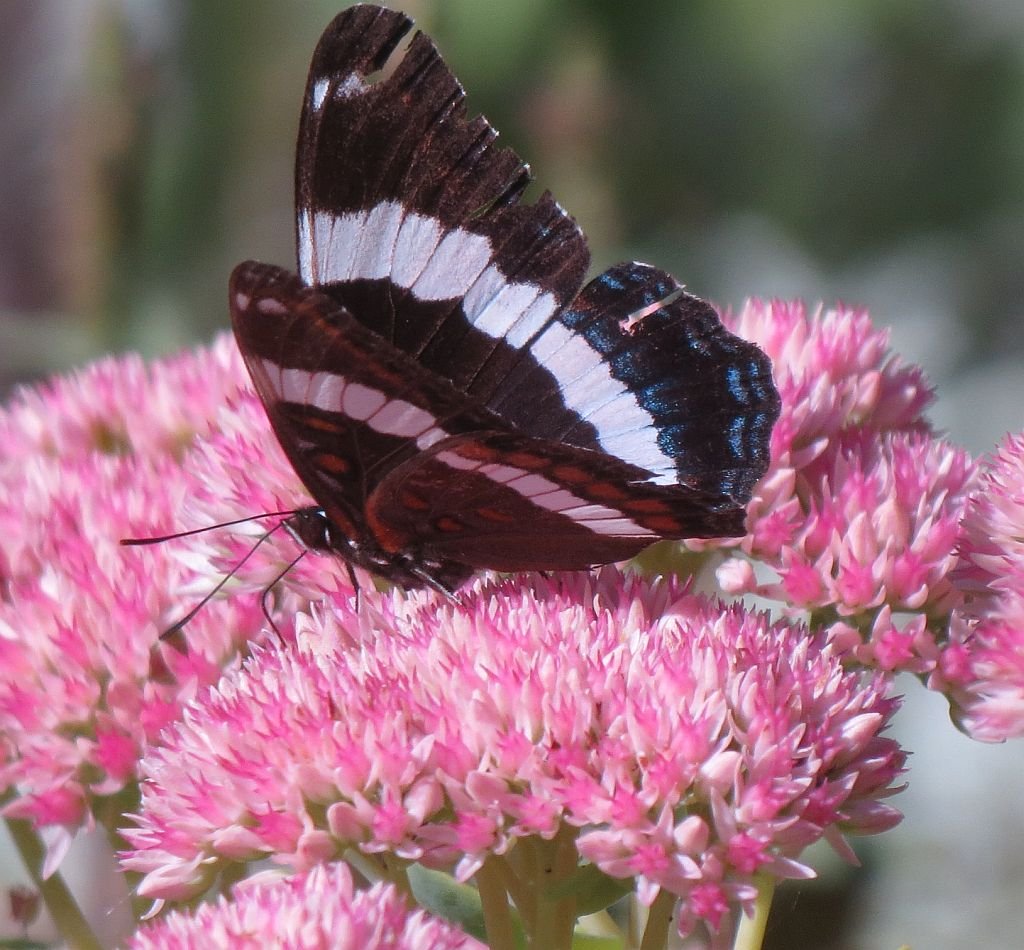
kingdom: Animalia
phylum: Arthropoda
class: Insecta
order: Lepidoptera
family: Nymphalidae
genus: Limenitis
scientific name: Limenitis arthemis
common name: Red-spotted Admiral
